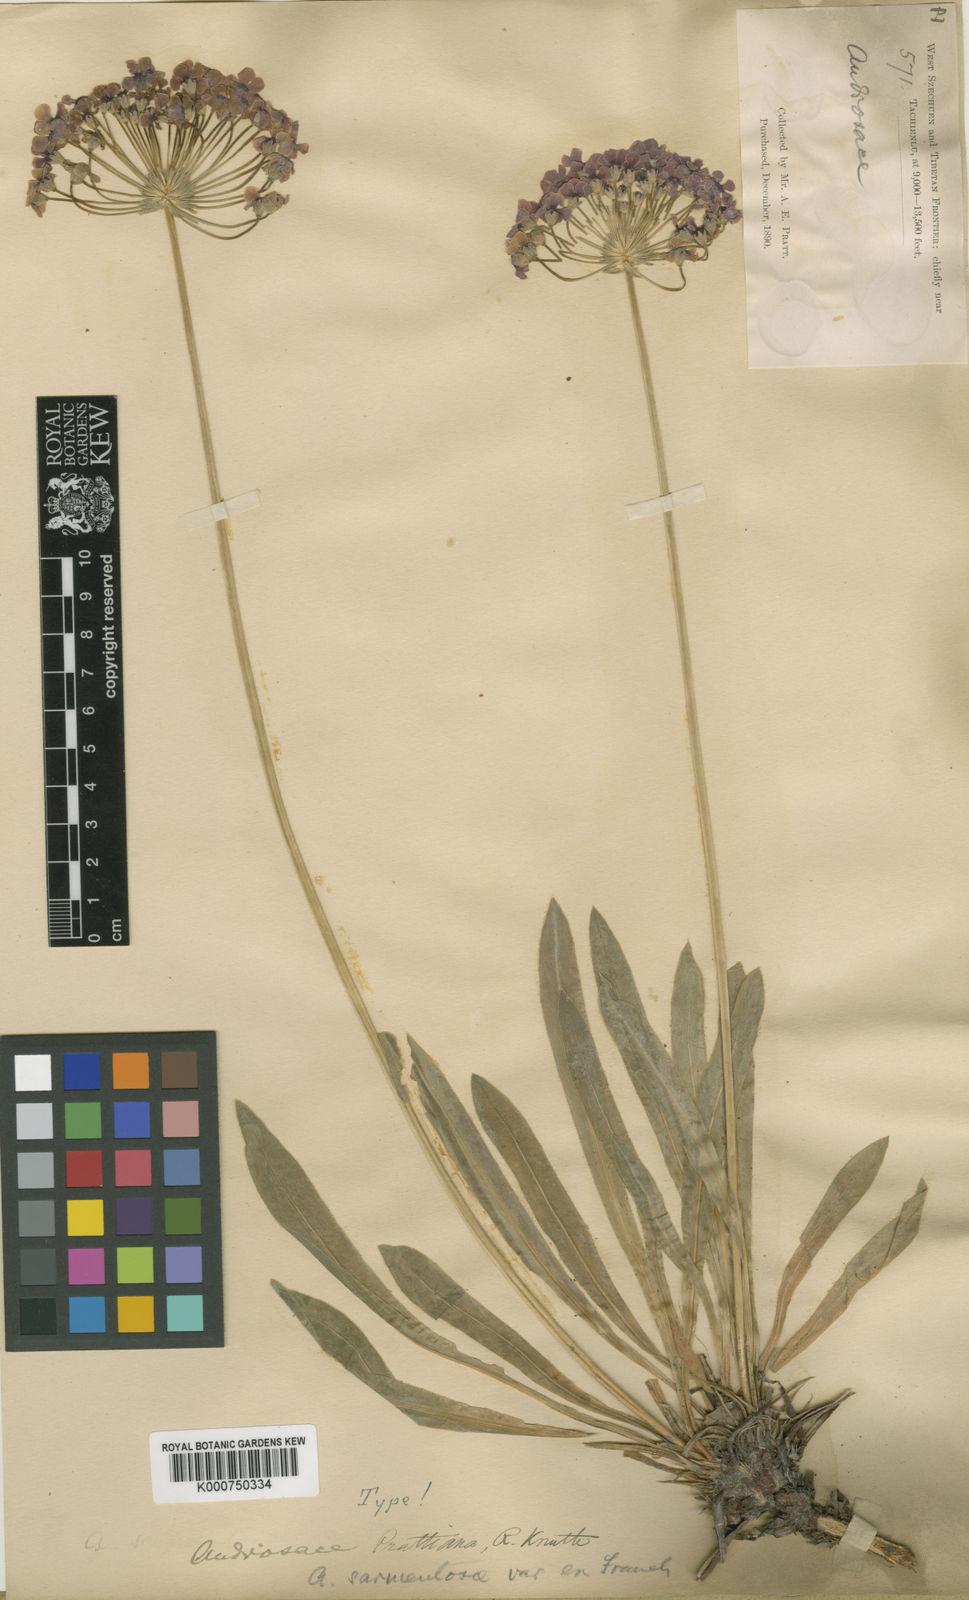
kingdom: Plantae
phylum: Tracheophyta
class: Magnoliopsida
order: Ericales
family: Primulaceae
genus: Androsace
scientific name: Androsace spinulifera
